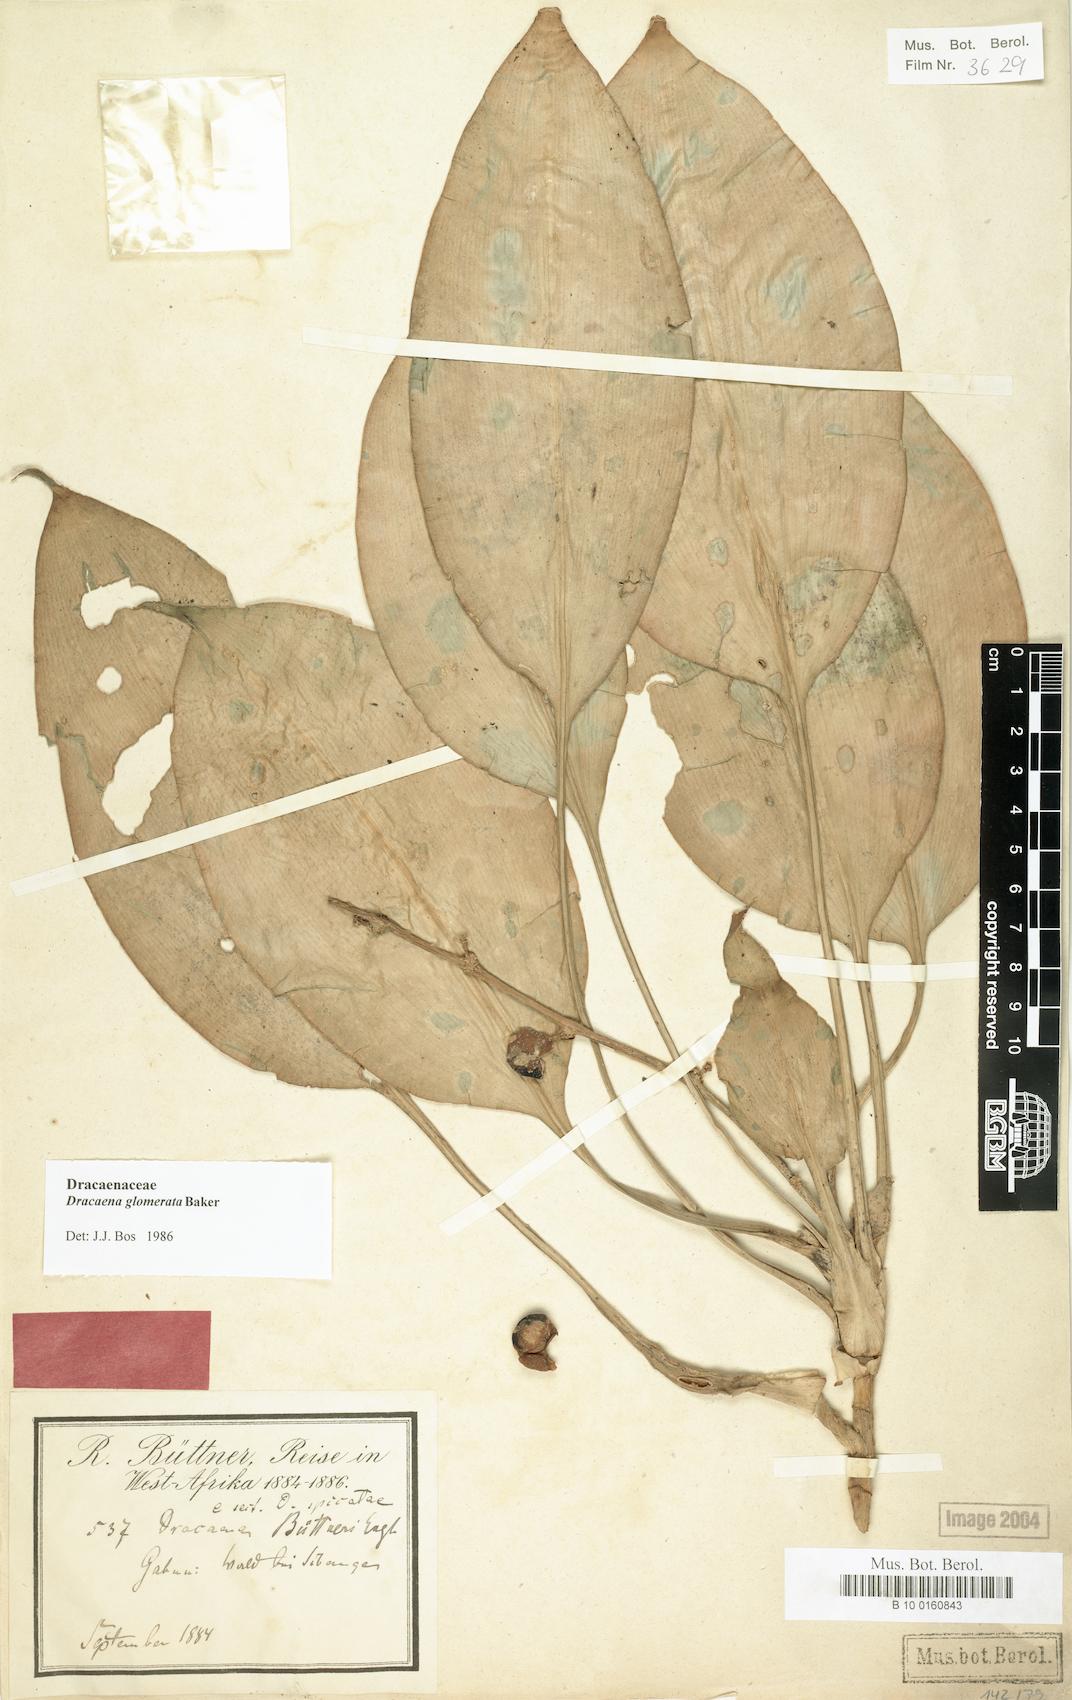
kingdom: Plantae
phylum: Tracheophyta
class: Liliopsida
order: Asparagales
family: Asparagaceae
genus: Dracaena
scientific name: Dracaena glomerata
